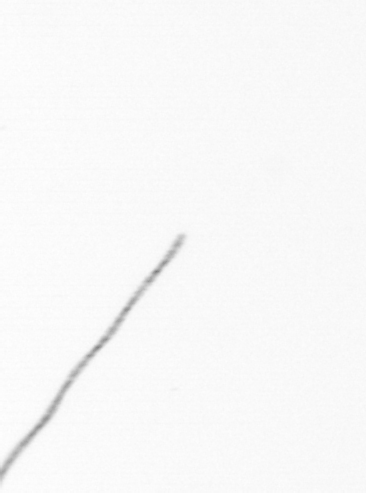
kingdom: Chromista
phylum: Ochrophyta
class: Bacillariophyceae
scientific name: Bacillariophyceae
